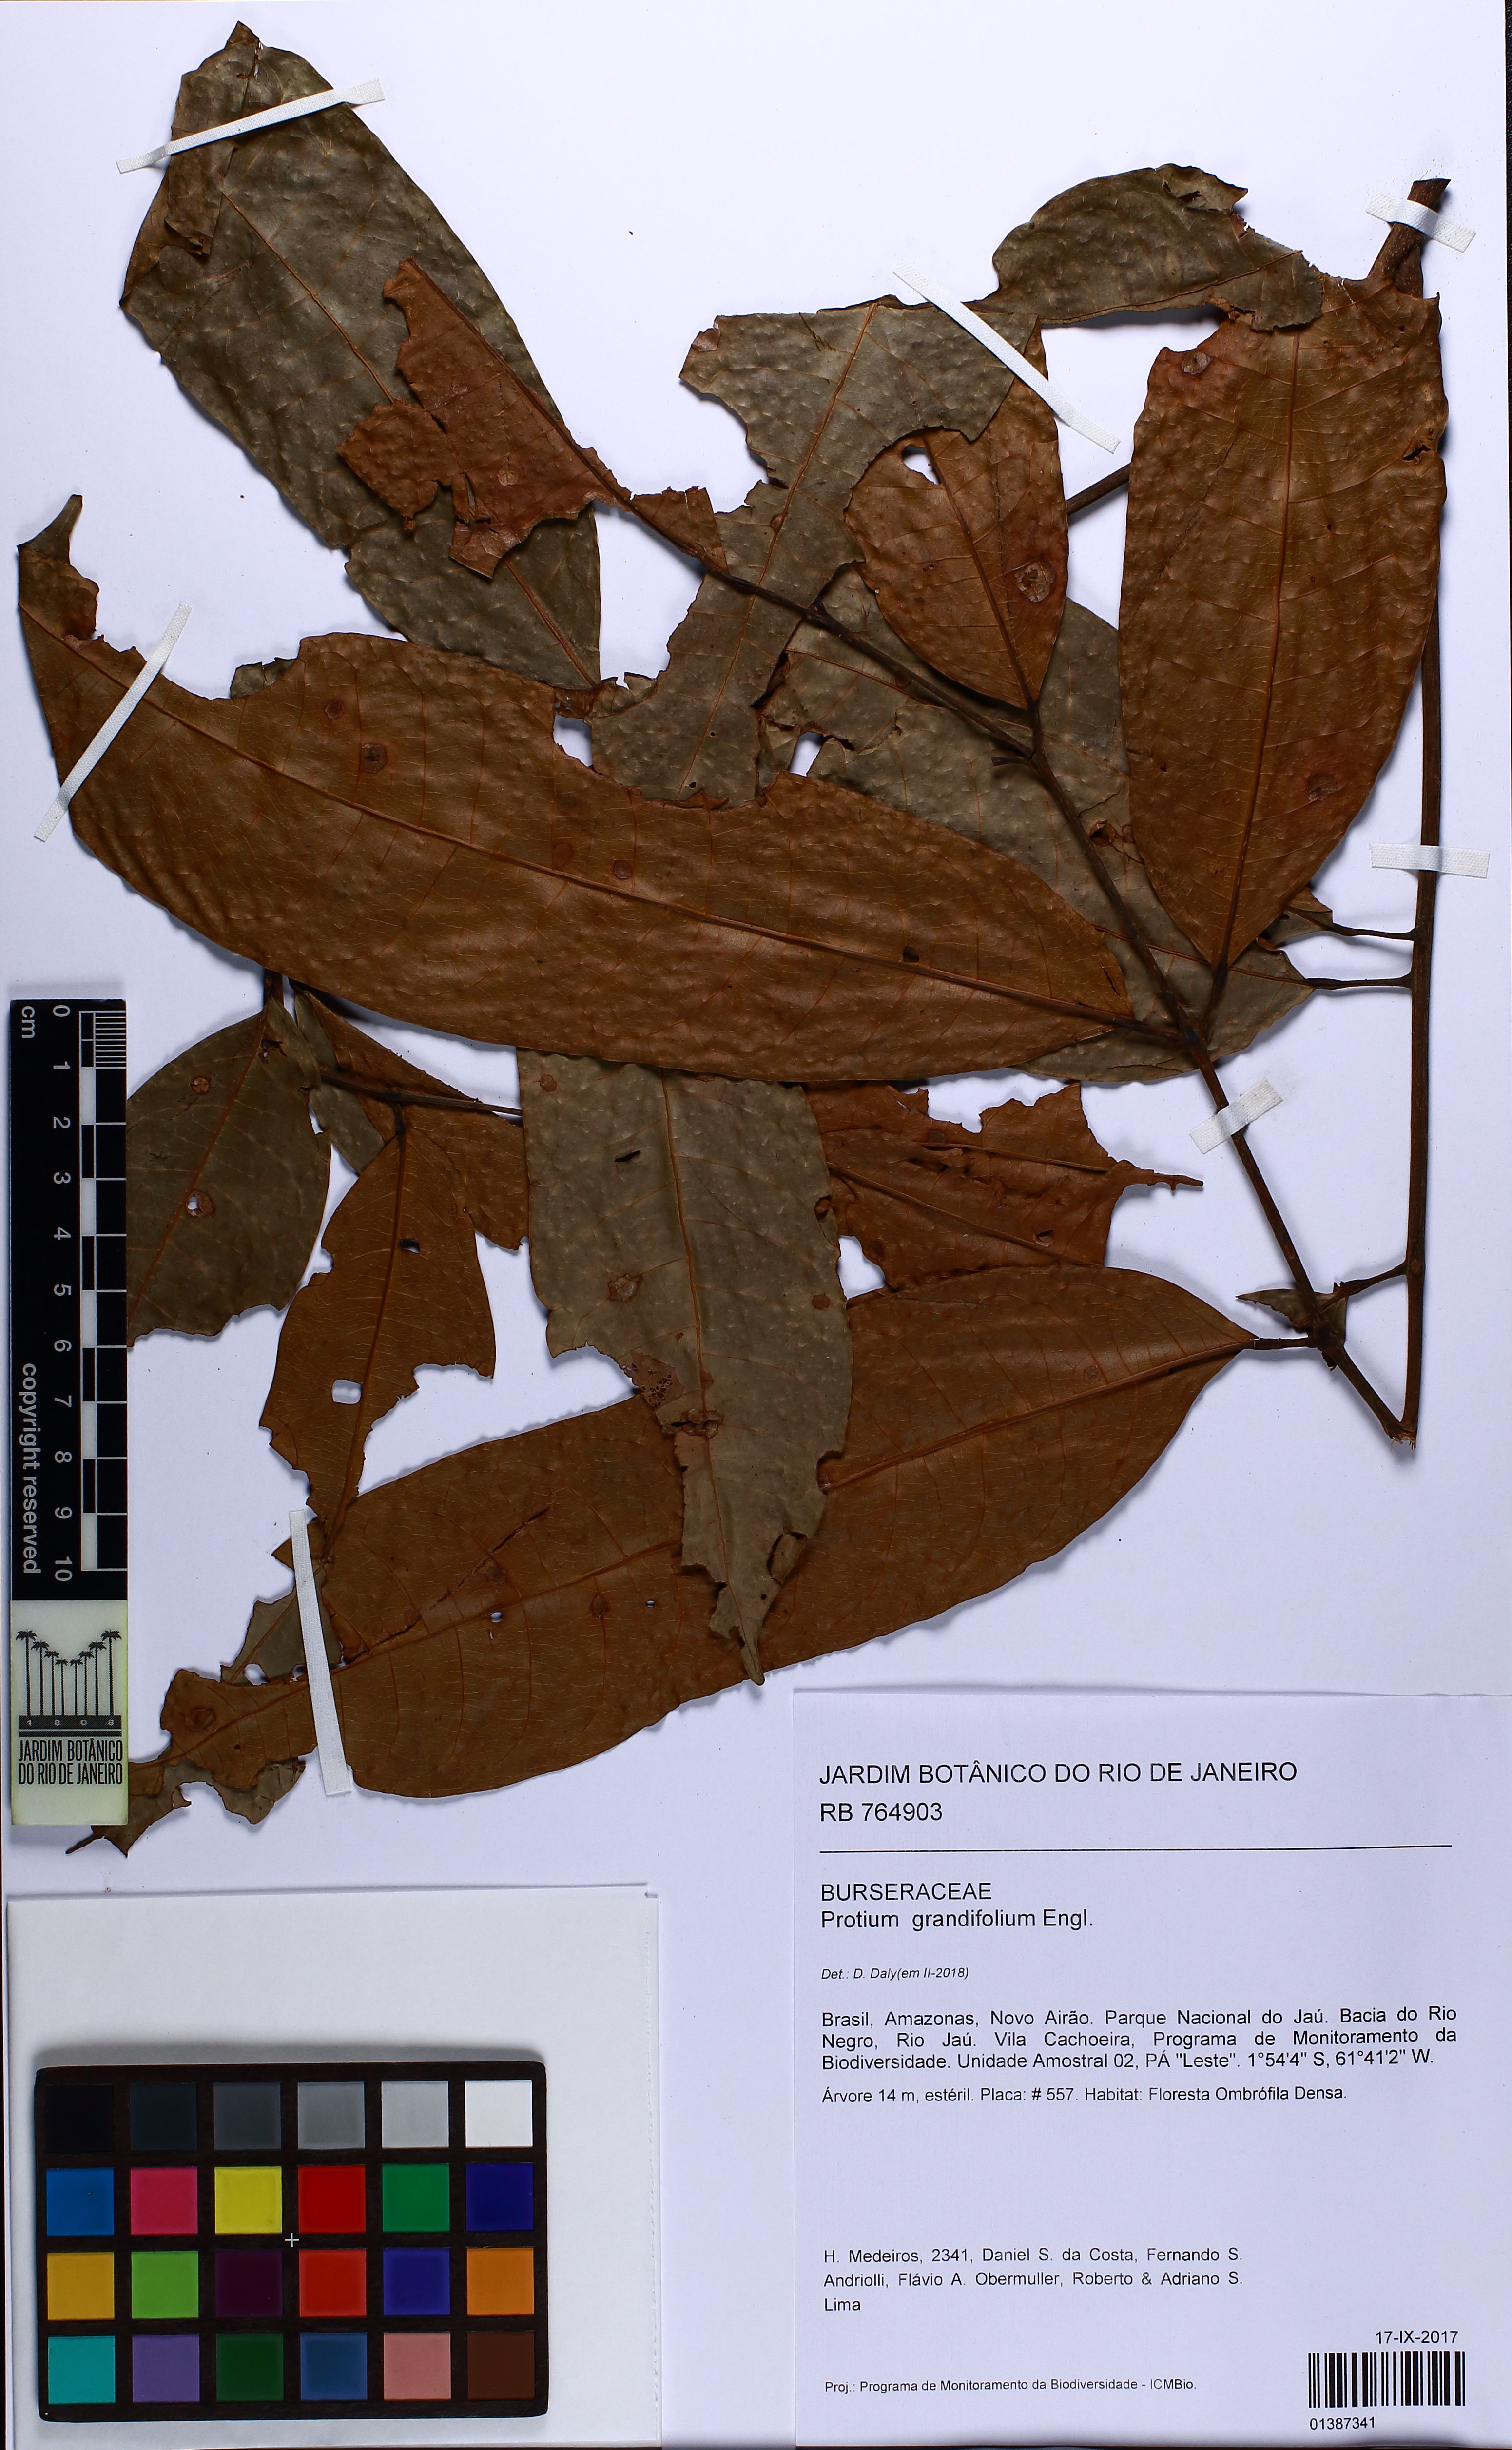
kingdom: Plantae
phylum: Tracheophyta
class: Magnoliopsida
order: Sapindales
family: Burseraceae
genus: Protium
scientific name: Protium grandifolium
